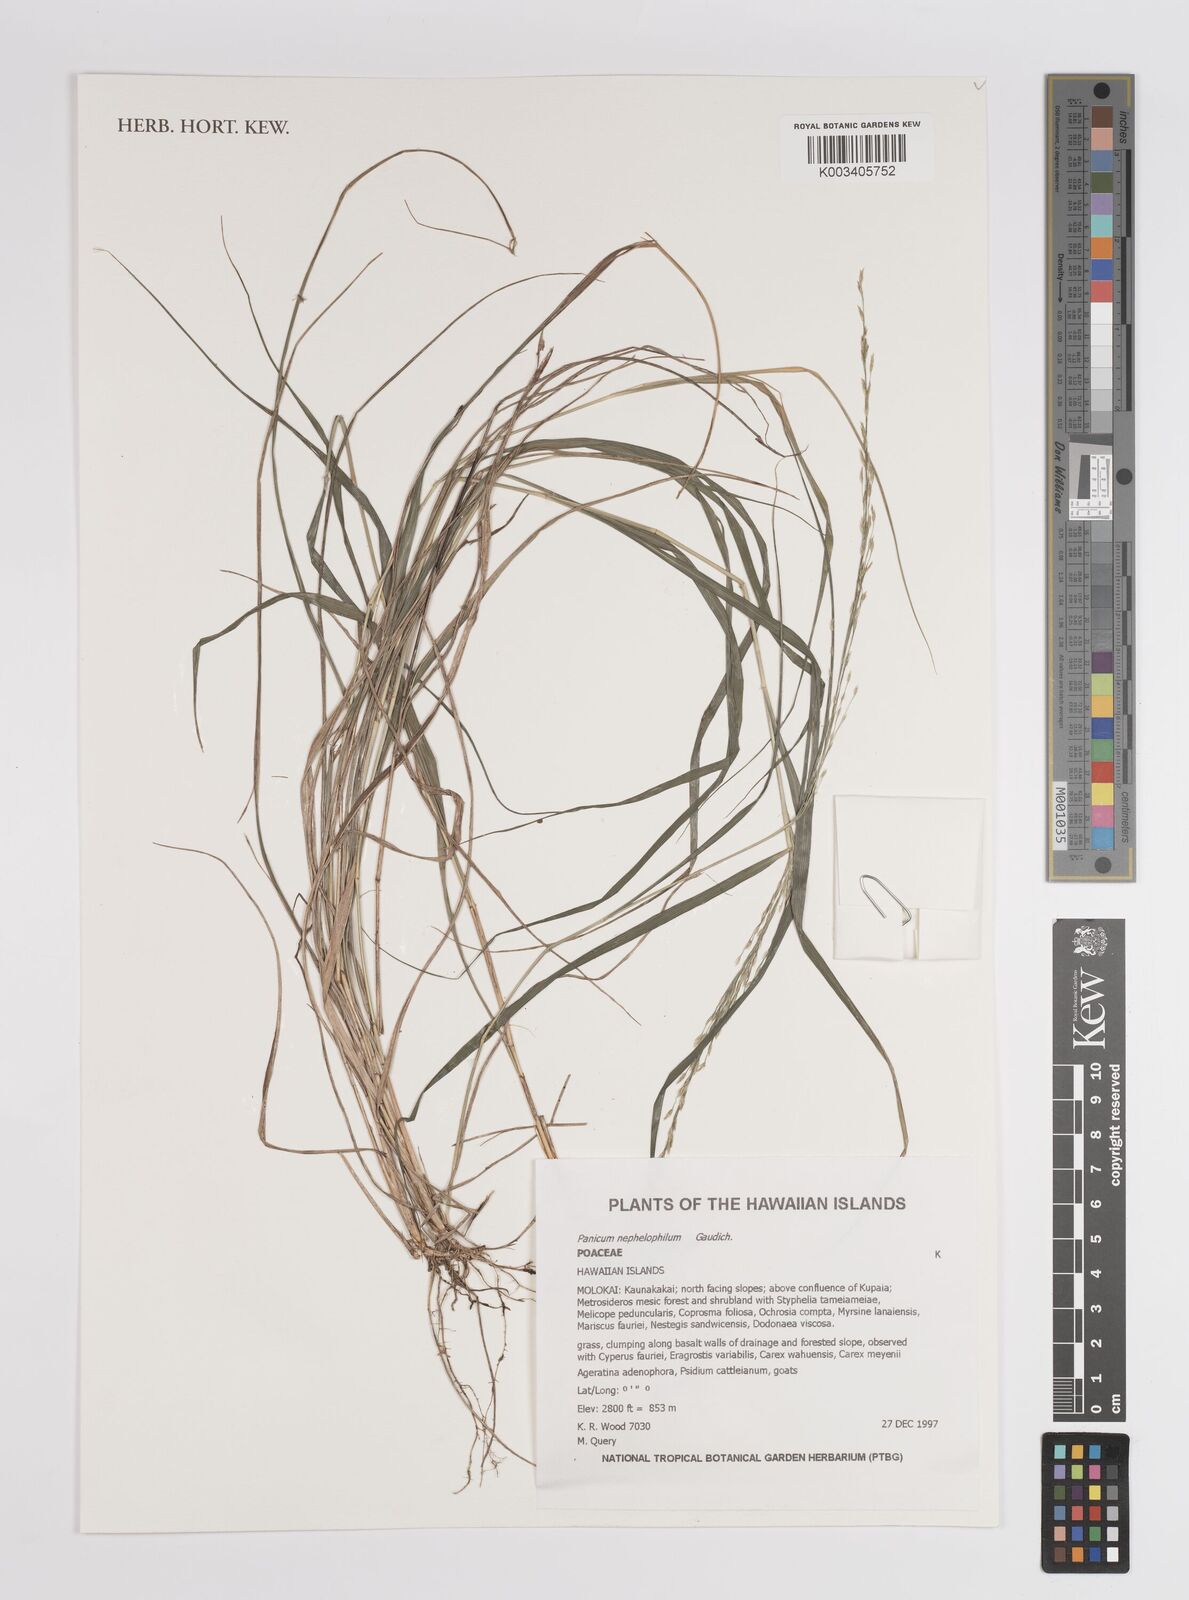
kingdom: Plantae
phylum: Tracheophyta
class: Liliopsida
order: Poales
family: Poaceae
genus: Panicum
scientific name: Panicum nephelophilum
